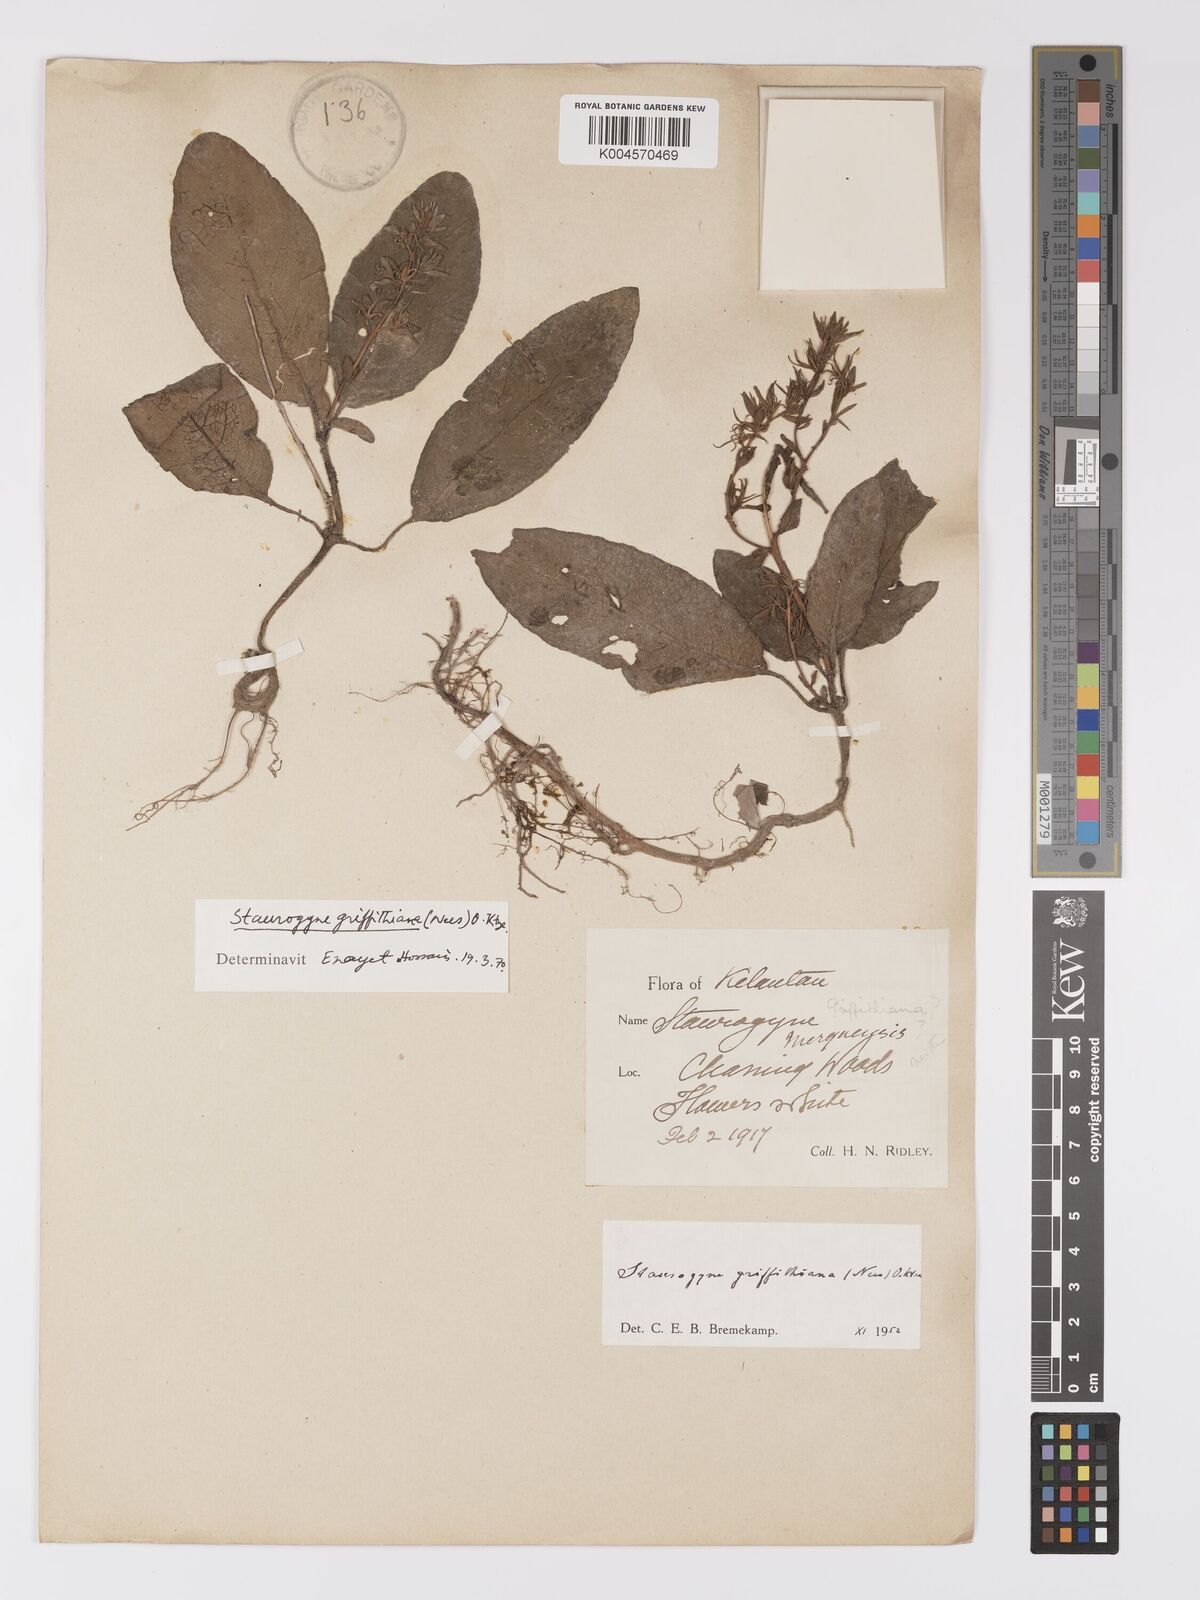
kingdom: Plantae
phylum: Tracheophyta
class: Magnoliopsida
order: Lamiales
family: Acanthaceae
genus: Staurogyne
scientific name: Staurogyne griffithiana
